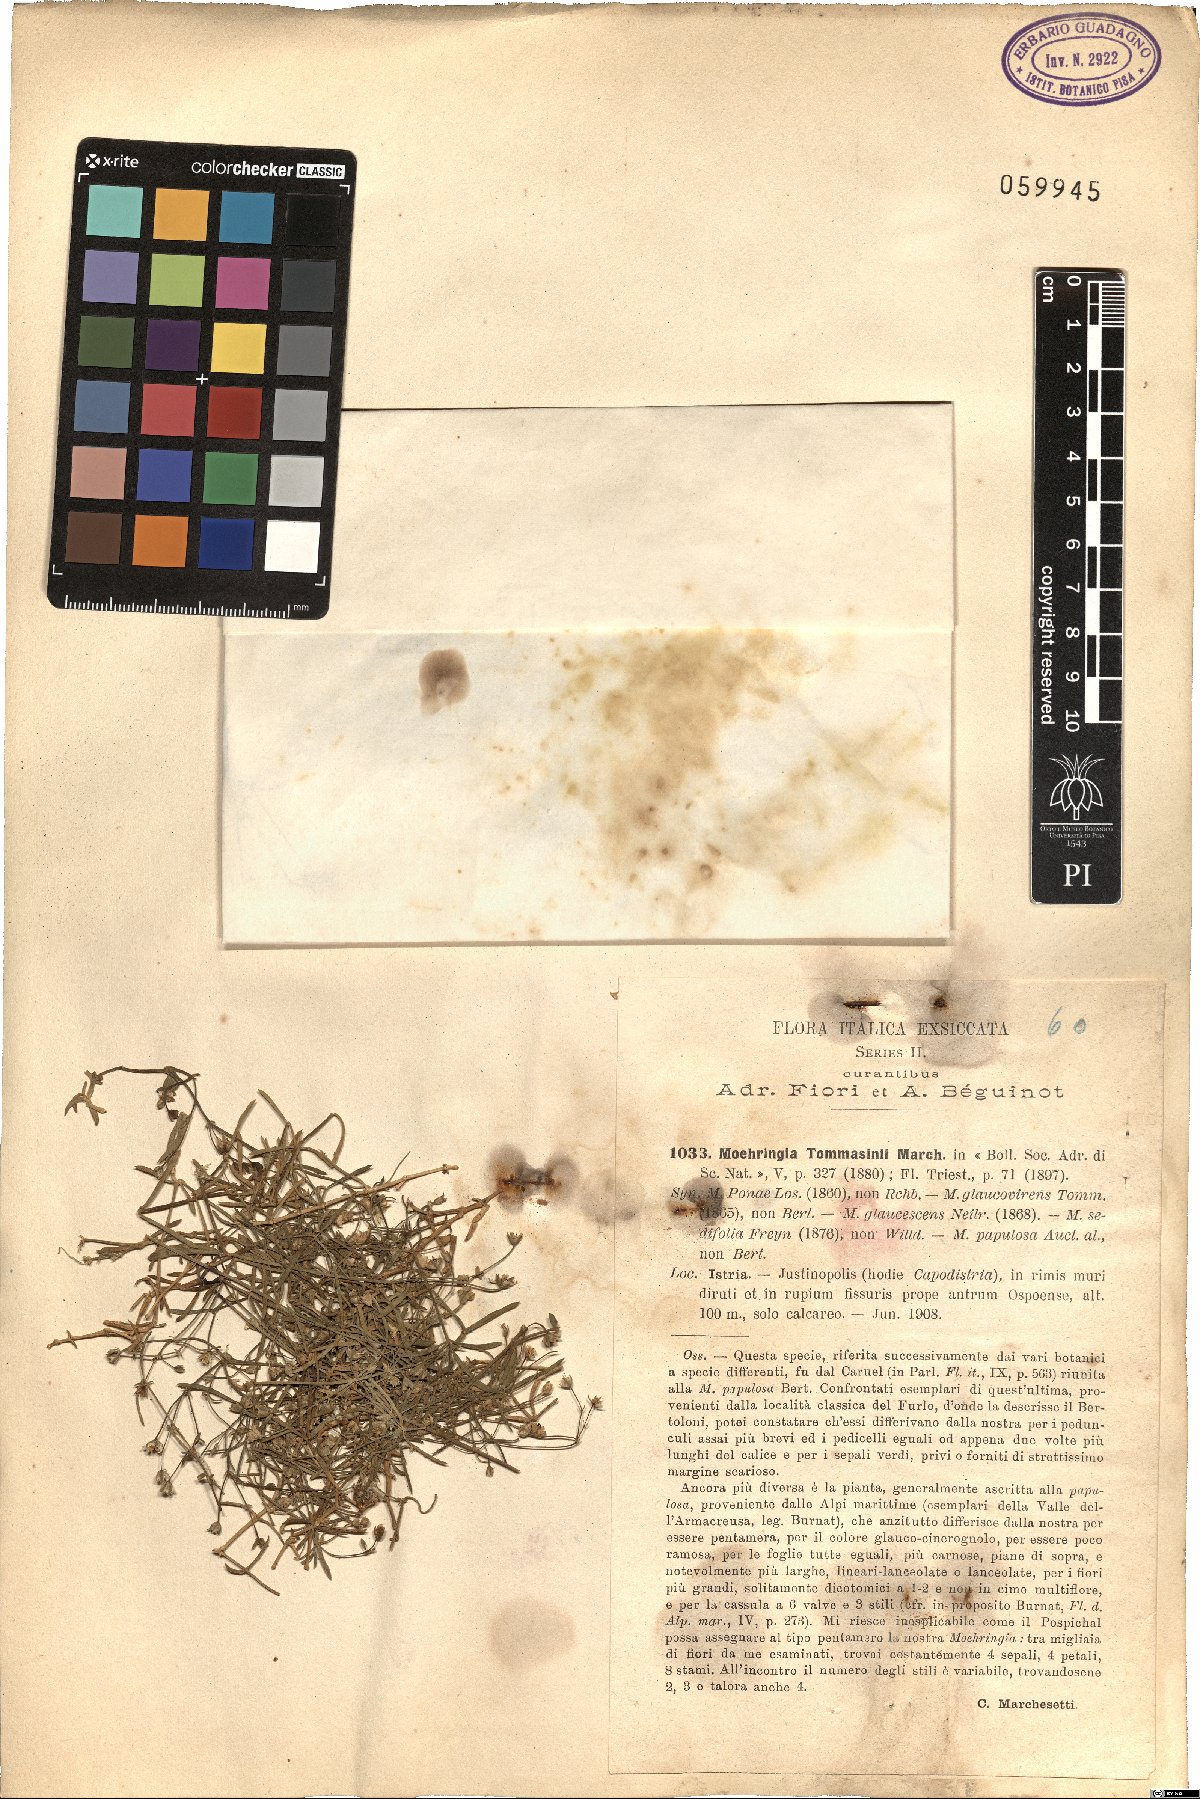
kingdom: Plantae
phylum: Tracheophyta
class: Magnoliopsida
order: Caryophyllales
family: Caryophyllaceae
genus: Moehringia
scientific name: Moehringia tommasinii
